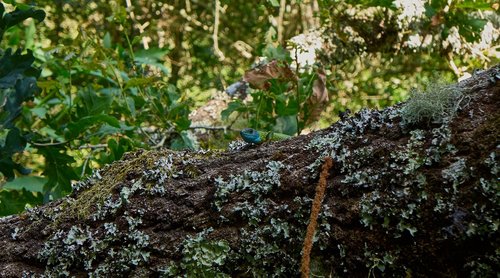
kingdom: Animalia
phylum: Chordata
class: Squamata
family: Lacertidae
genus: Lacerta
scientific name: Lacerta schreiberi
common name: Iberian emerald lizard
